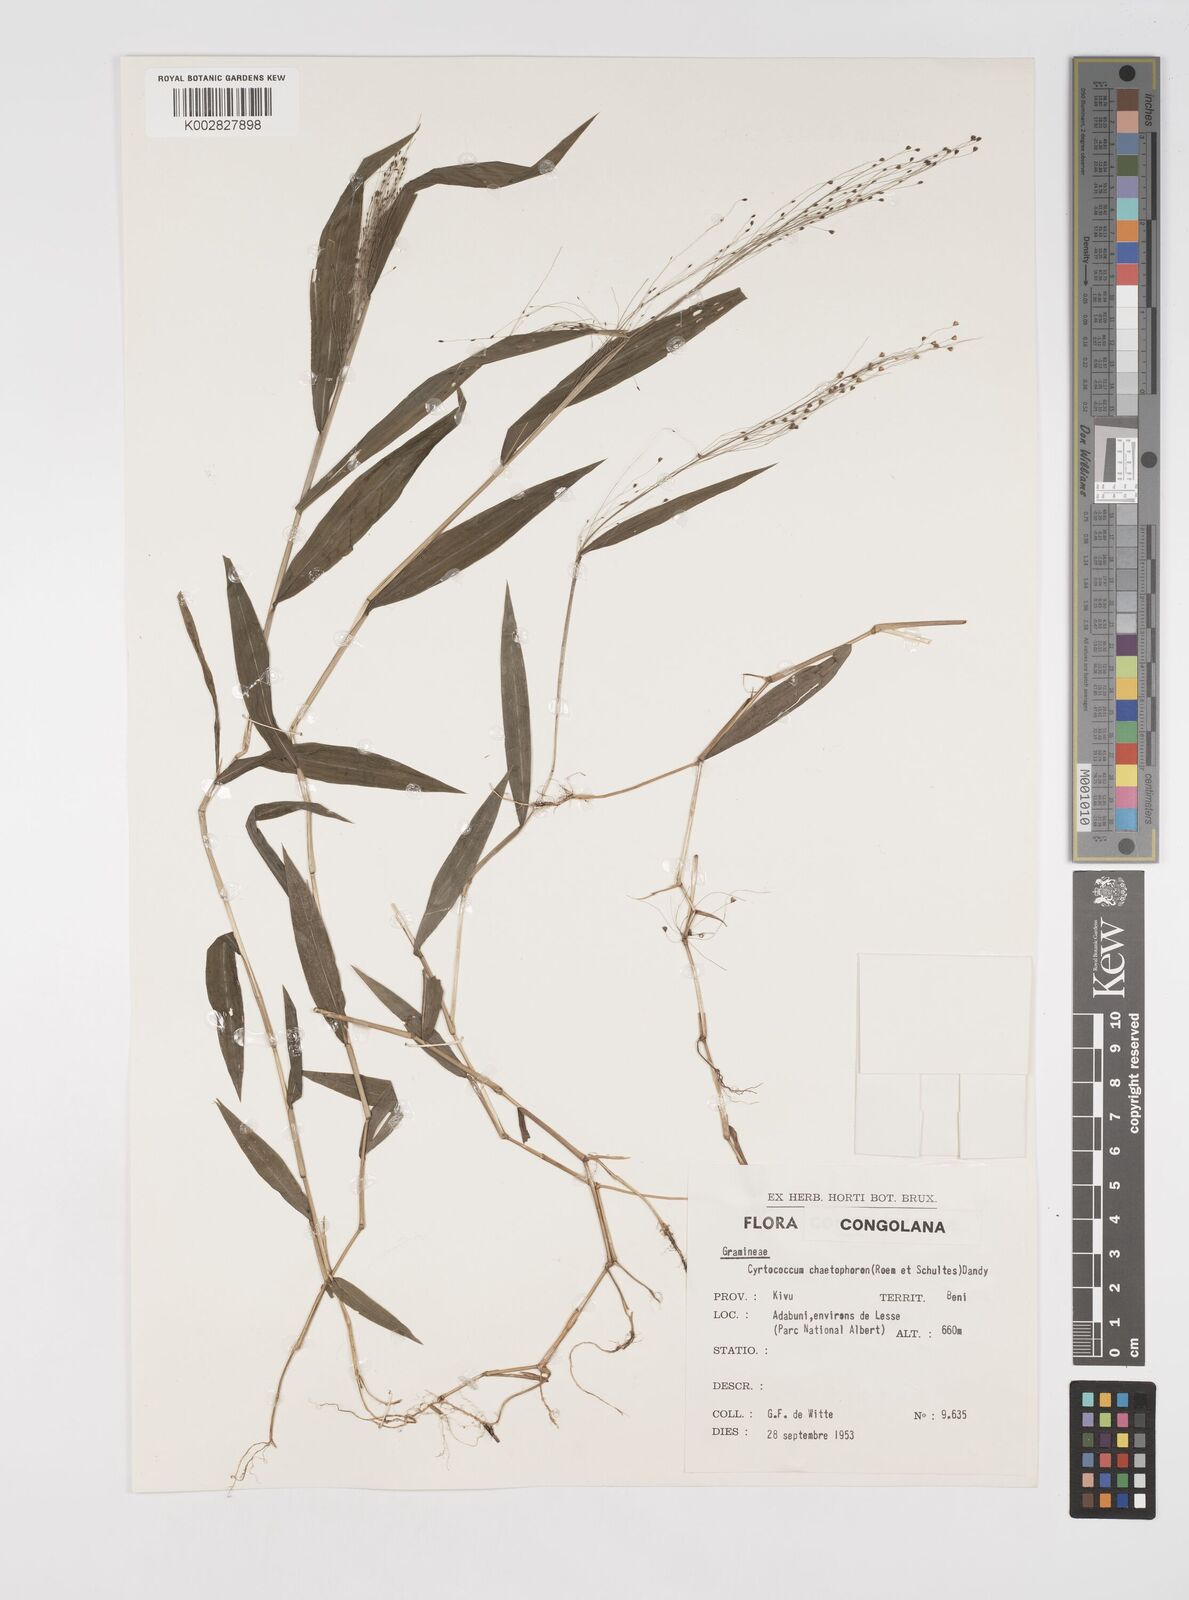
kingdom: Plantae
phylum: Tracheophyta
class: Liliopsida
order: Poales
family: Poaceae
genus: Cyrtococcum
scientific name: Cyrtococcum chaetophoron
